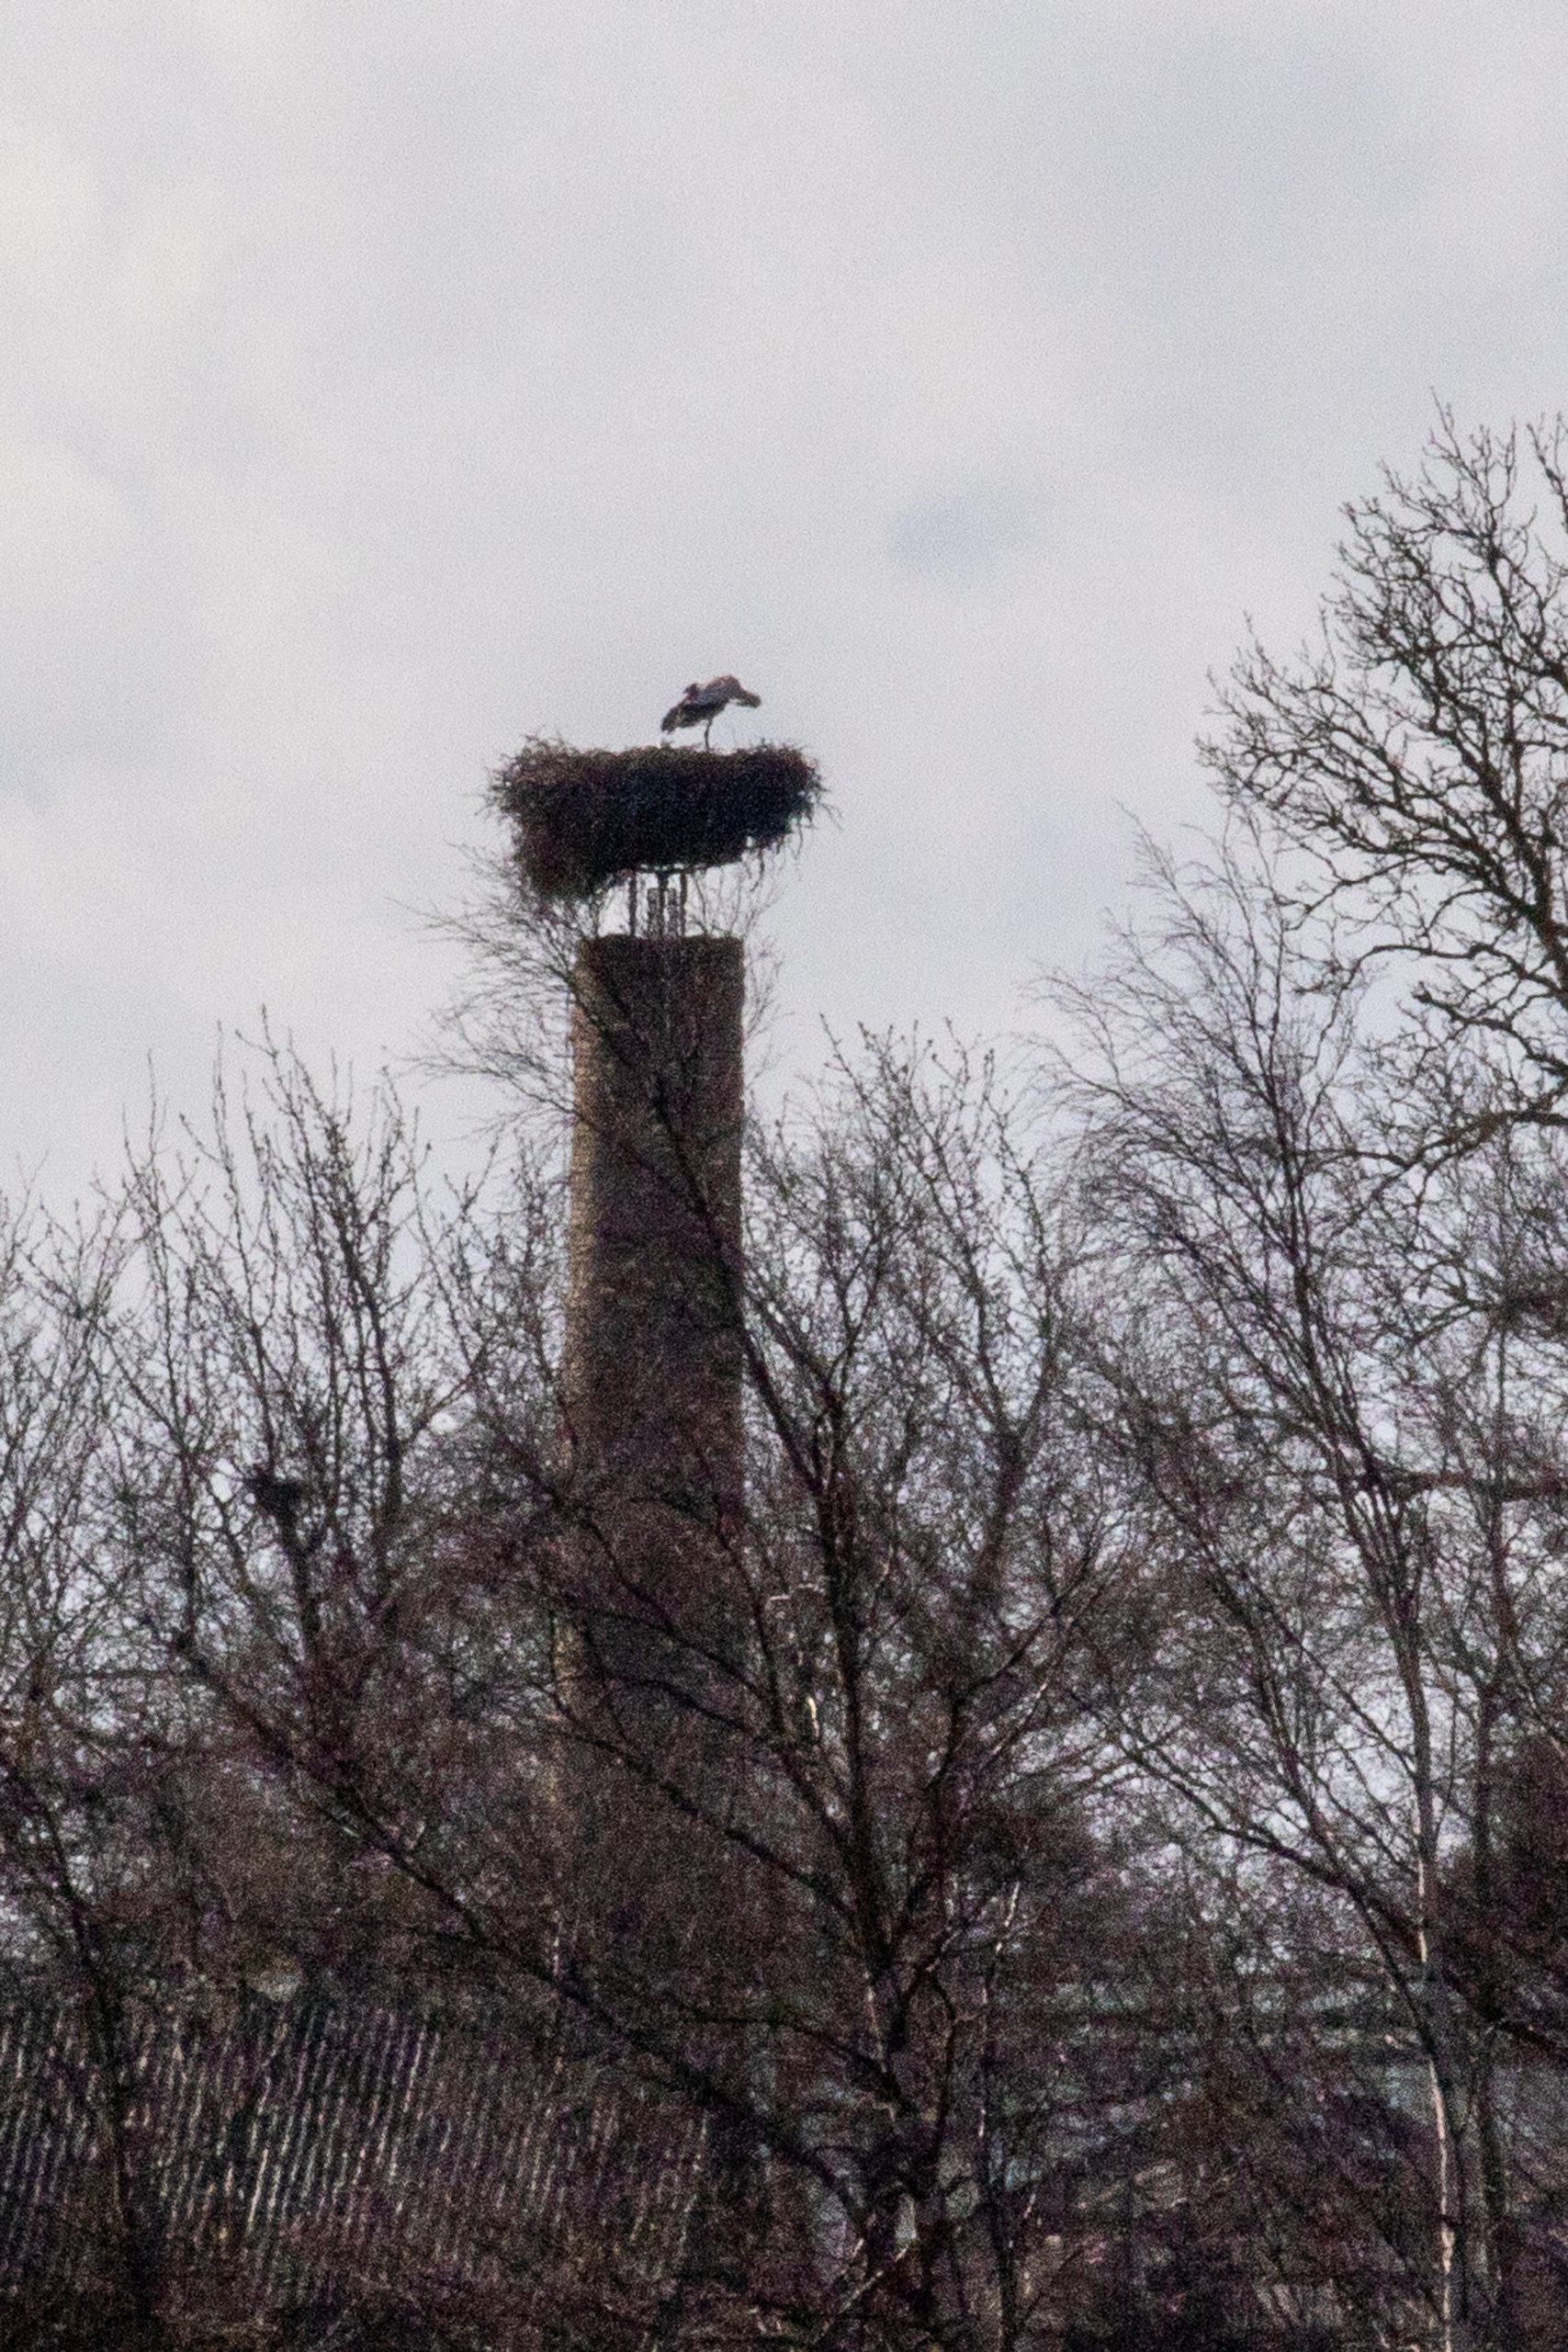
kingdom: Animalia
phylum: Chordata
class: Aves
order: Ciconiiformes
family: Ciconiidae
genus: Ciconia
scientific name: Ciconia ciconia
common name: Hvid stork
